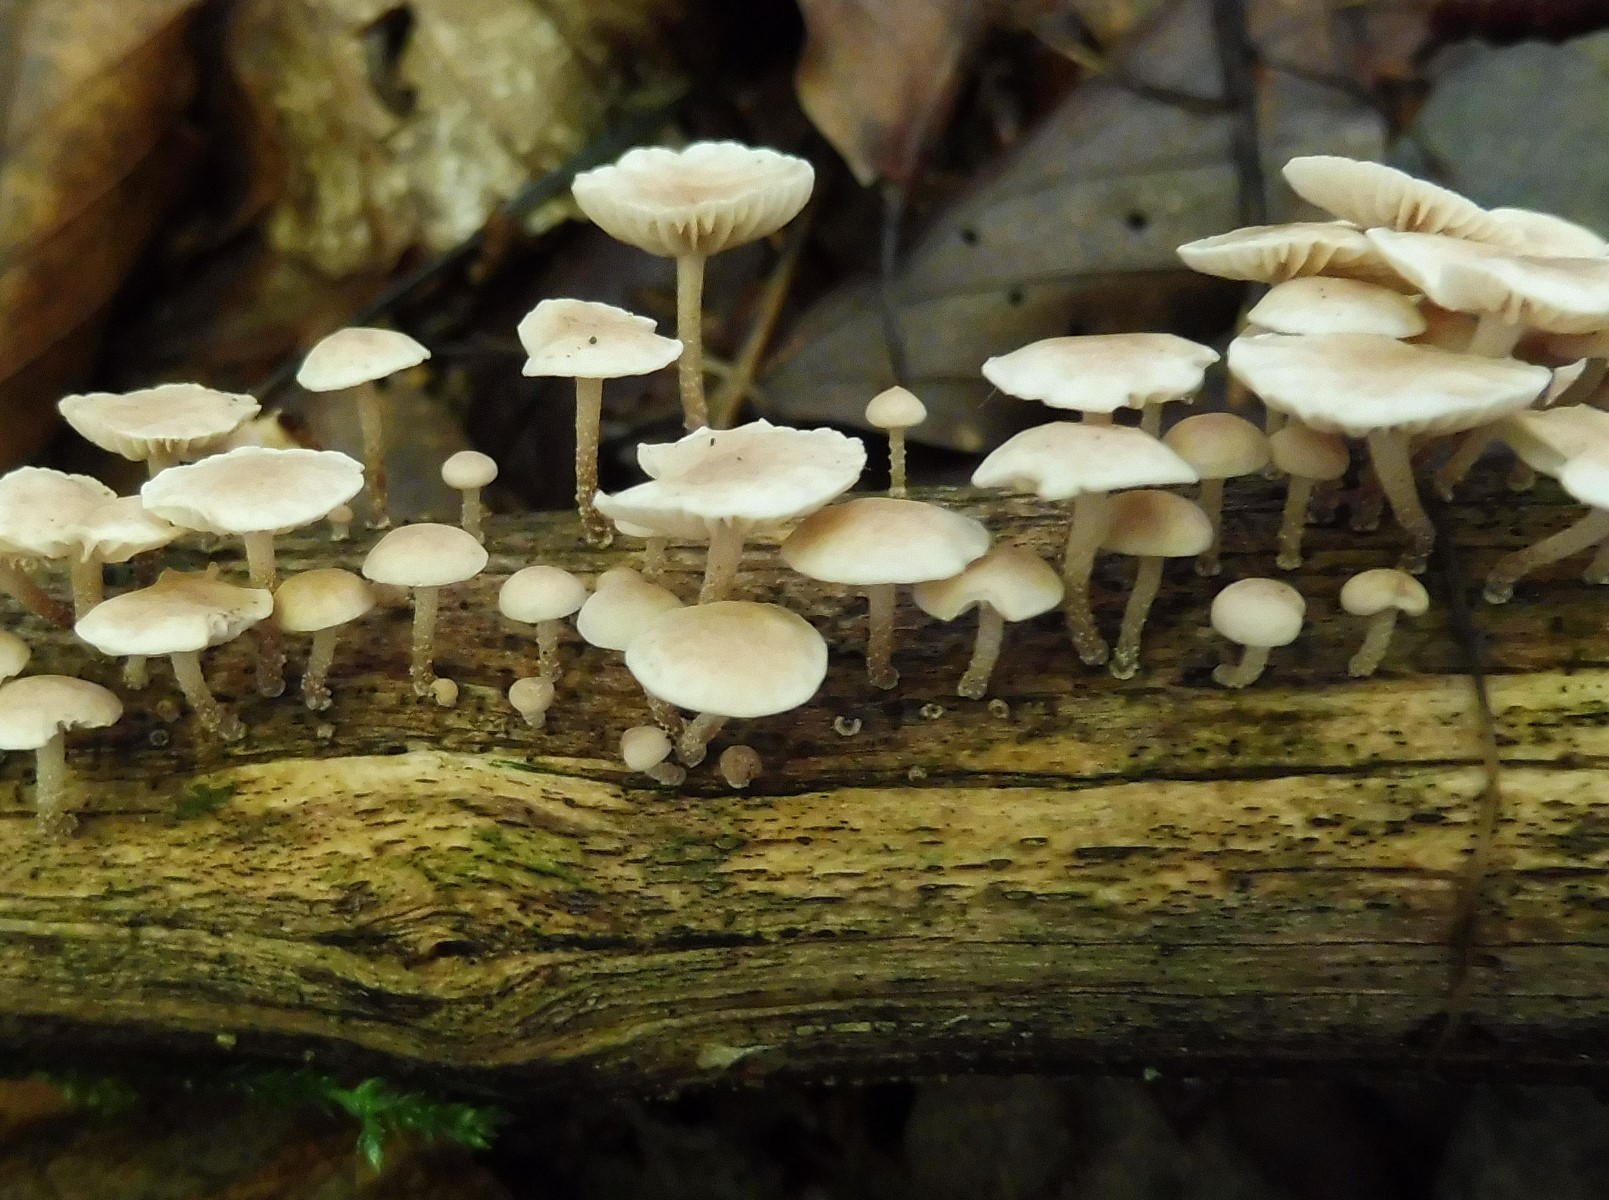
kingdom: Fungi
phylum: Basidiomycota
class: Agaricomycetes
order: Agaricales
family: Omphalotaceae
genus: Collybiopsis
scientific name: Collybiopsis ramealis
